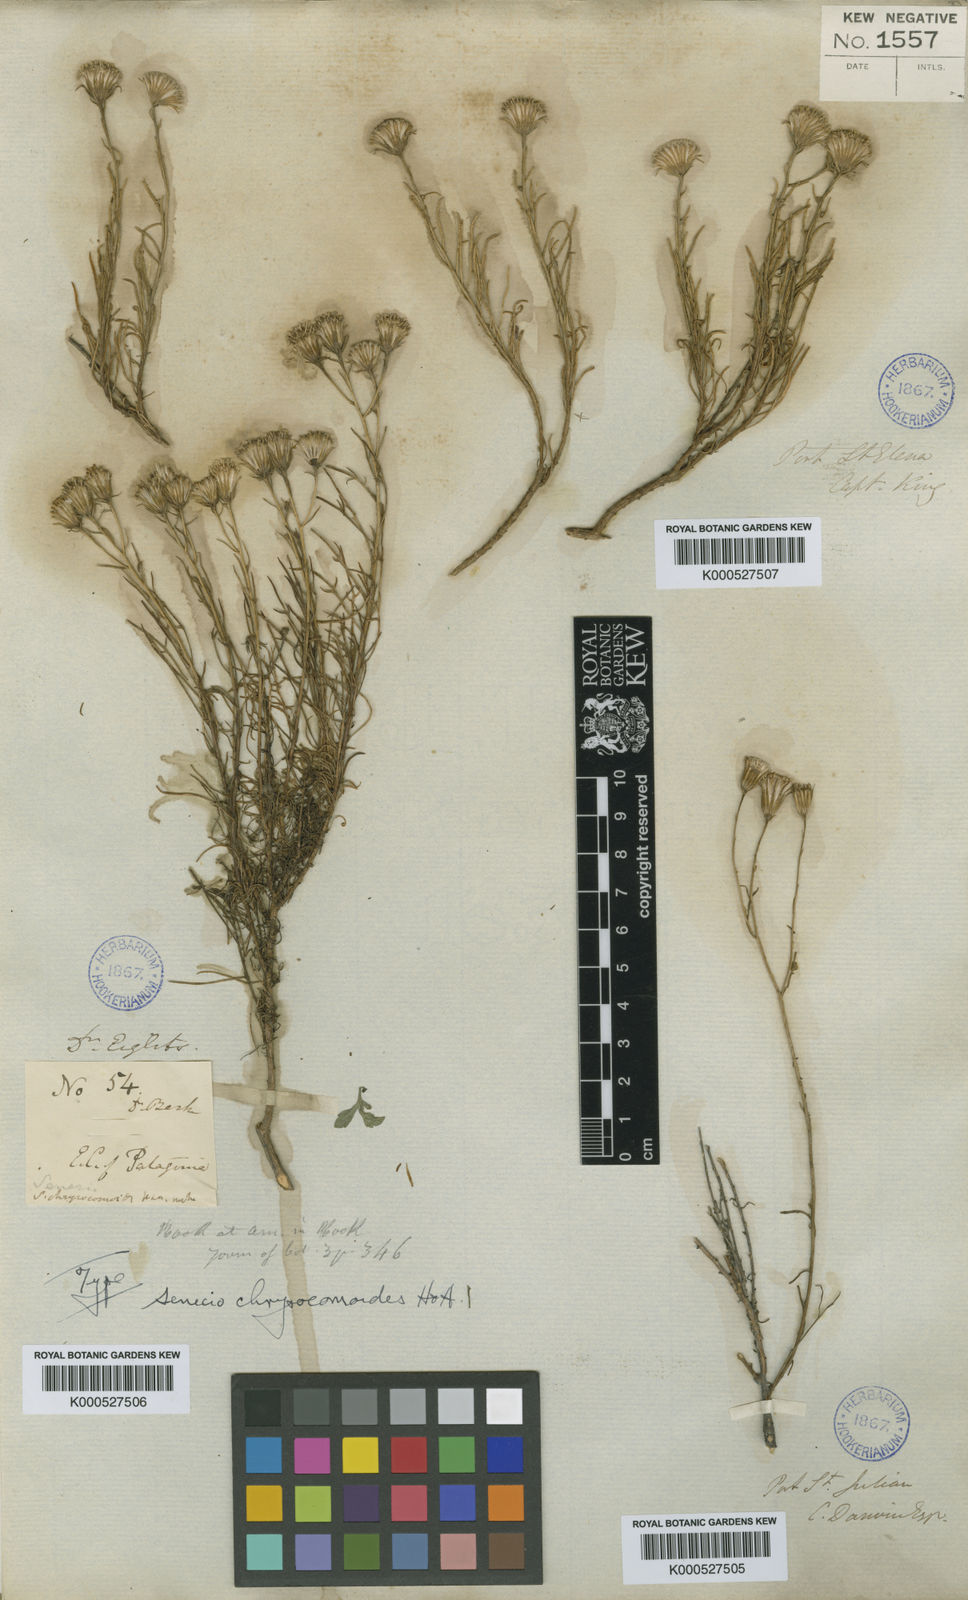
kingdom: Plantae
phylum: Tracheophyta
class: Magnoliopsida
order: Asterales
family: Asteraceae
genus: Senecio
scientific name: Senecio chrysocomoides
